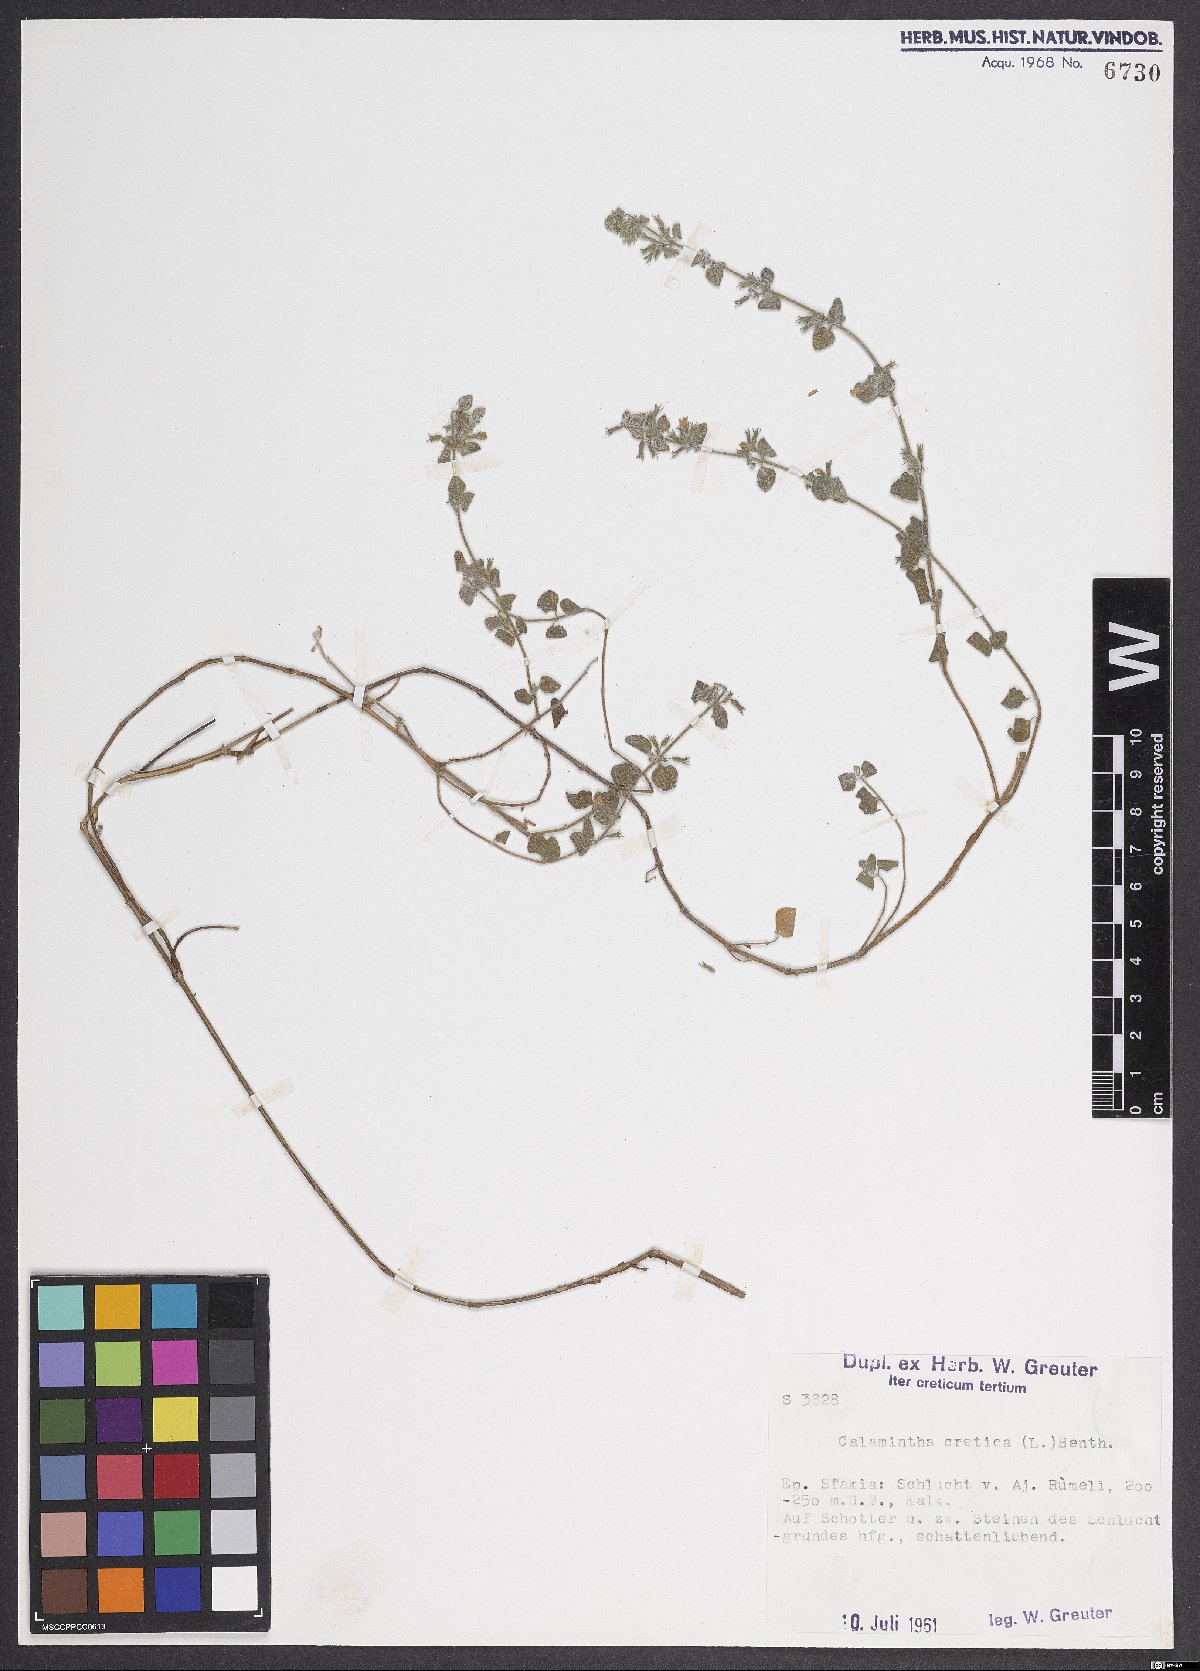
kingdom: Plantae
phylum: Tracheophyta
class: Magnoliopsida
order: Lamiales
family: Lamiaceae
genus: Clinopodium
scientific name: Clinopodium creticum
